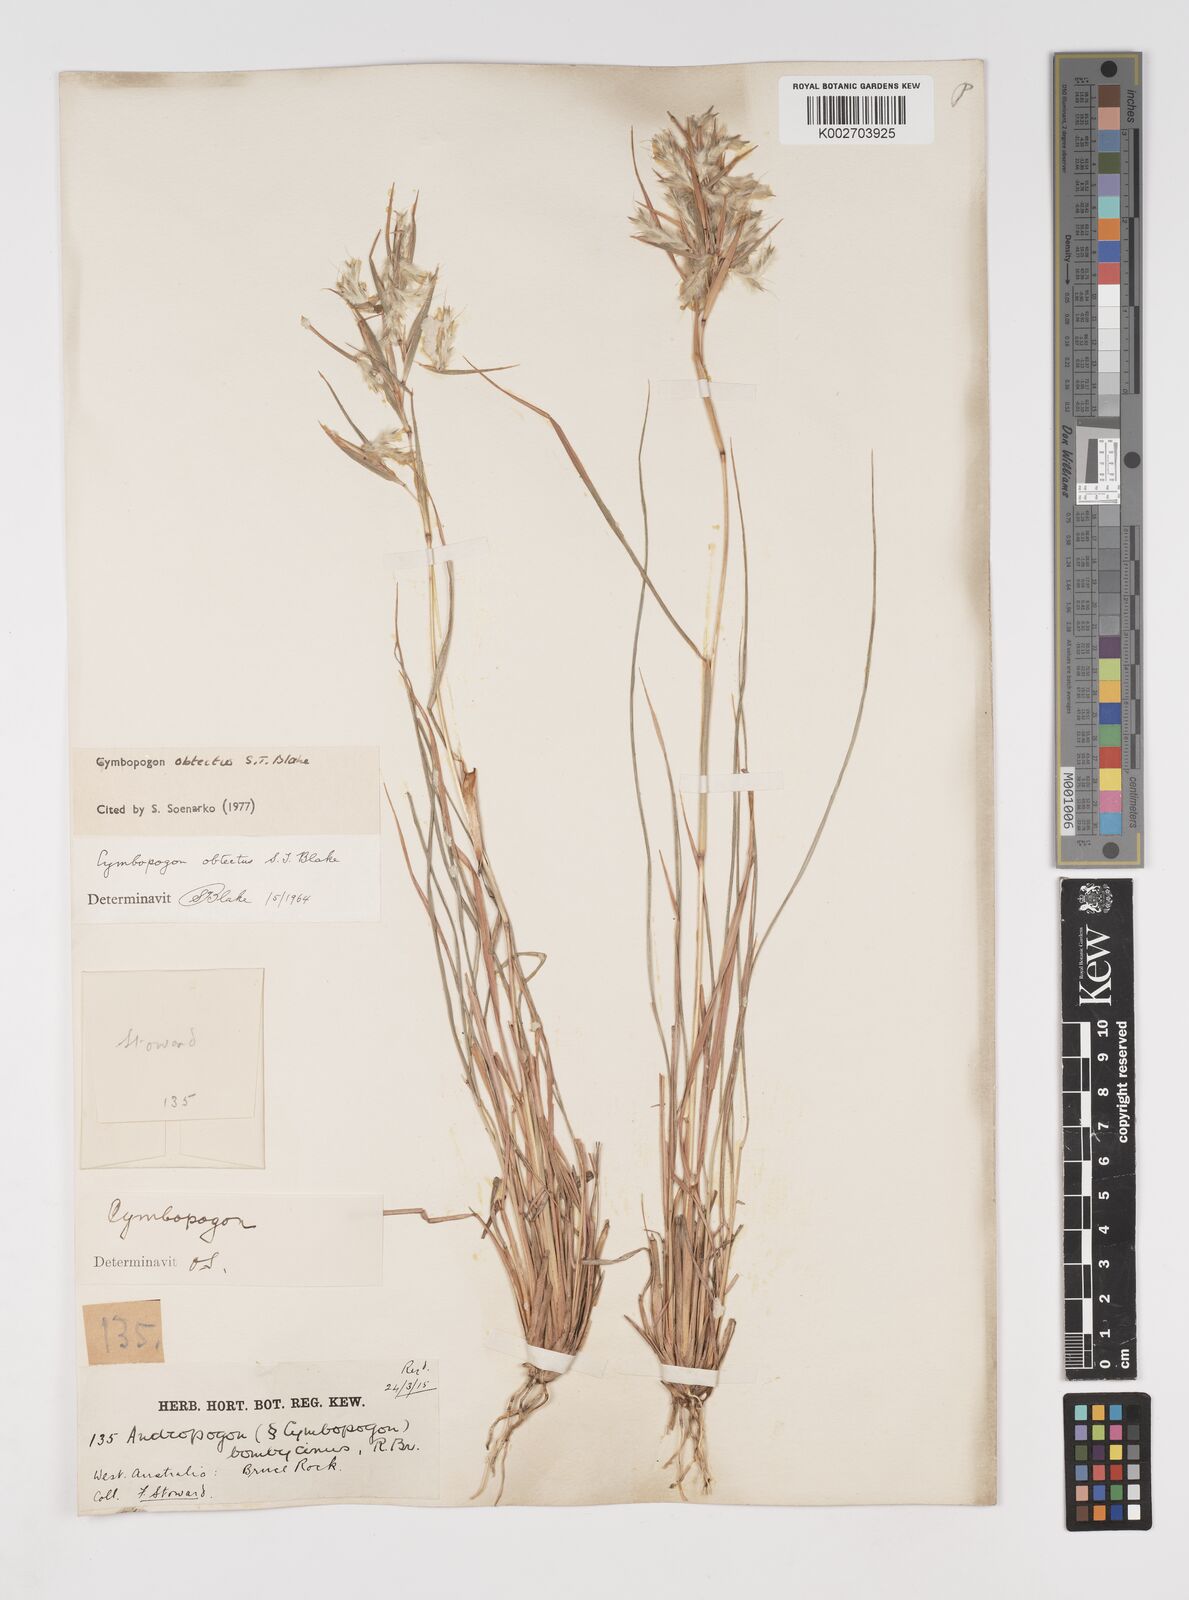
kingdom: Plantae
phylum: Tracheophyta
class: Liliopsida
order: Poales
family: Poaceae
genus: Cymbopogon
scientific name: Cymbopogon obtectus
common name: Silky heads
